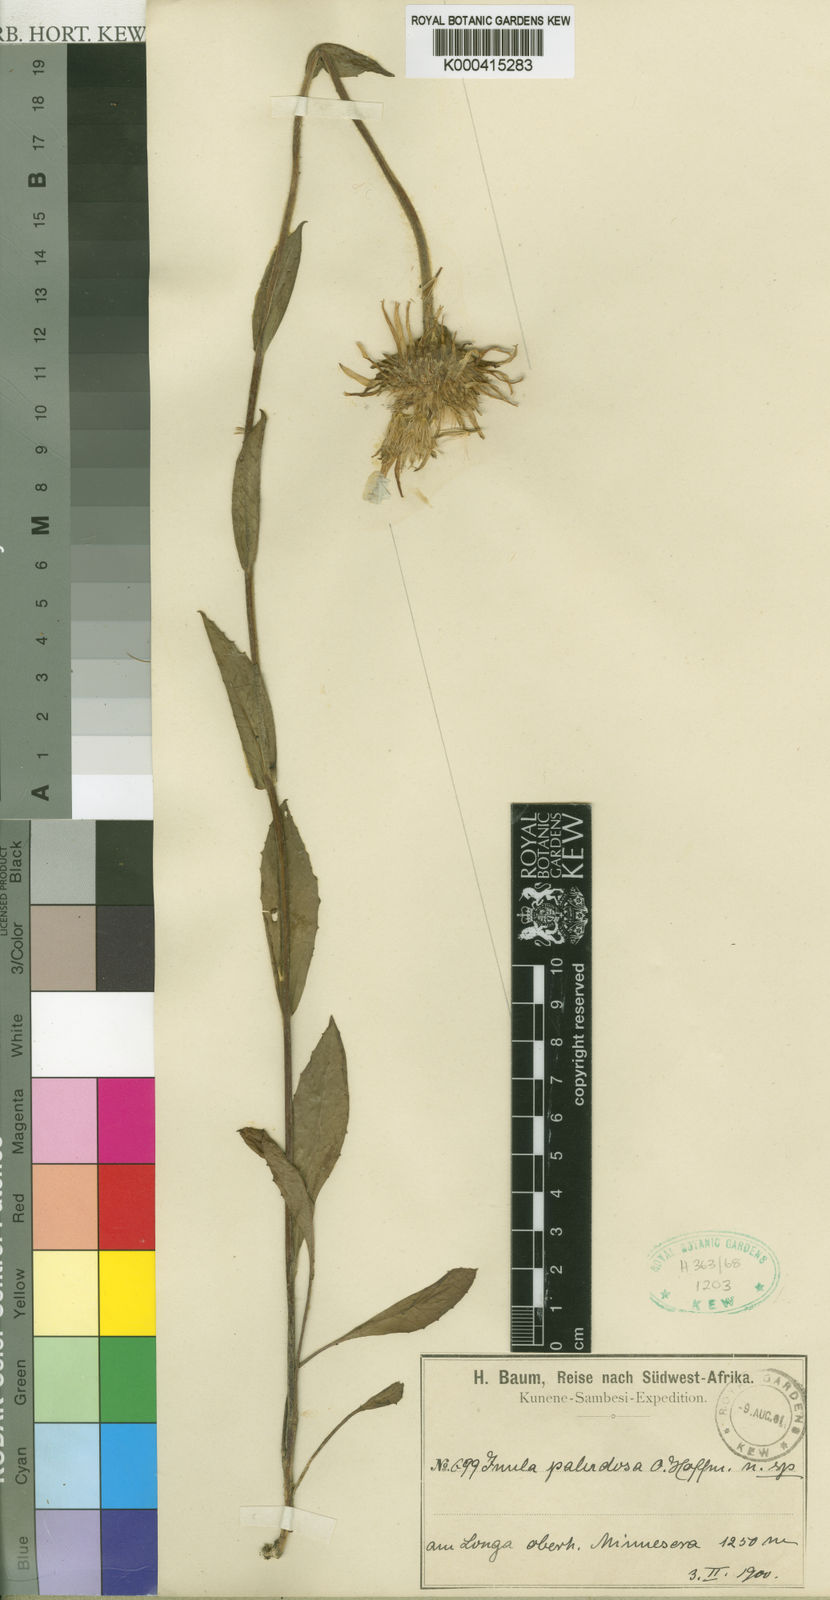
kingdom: Plantae
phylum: Tracheophyta
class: Magnoliopsida
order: Asterales
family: Asteraceae
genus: Inula
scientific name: Inula paludosa
